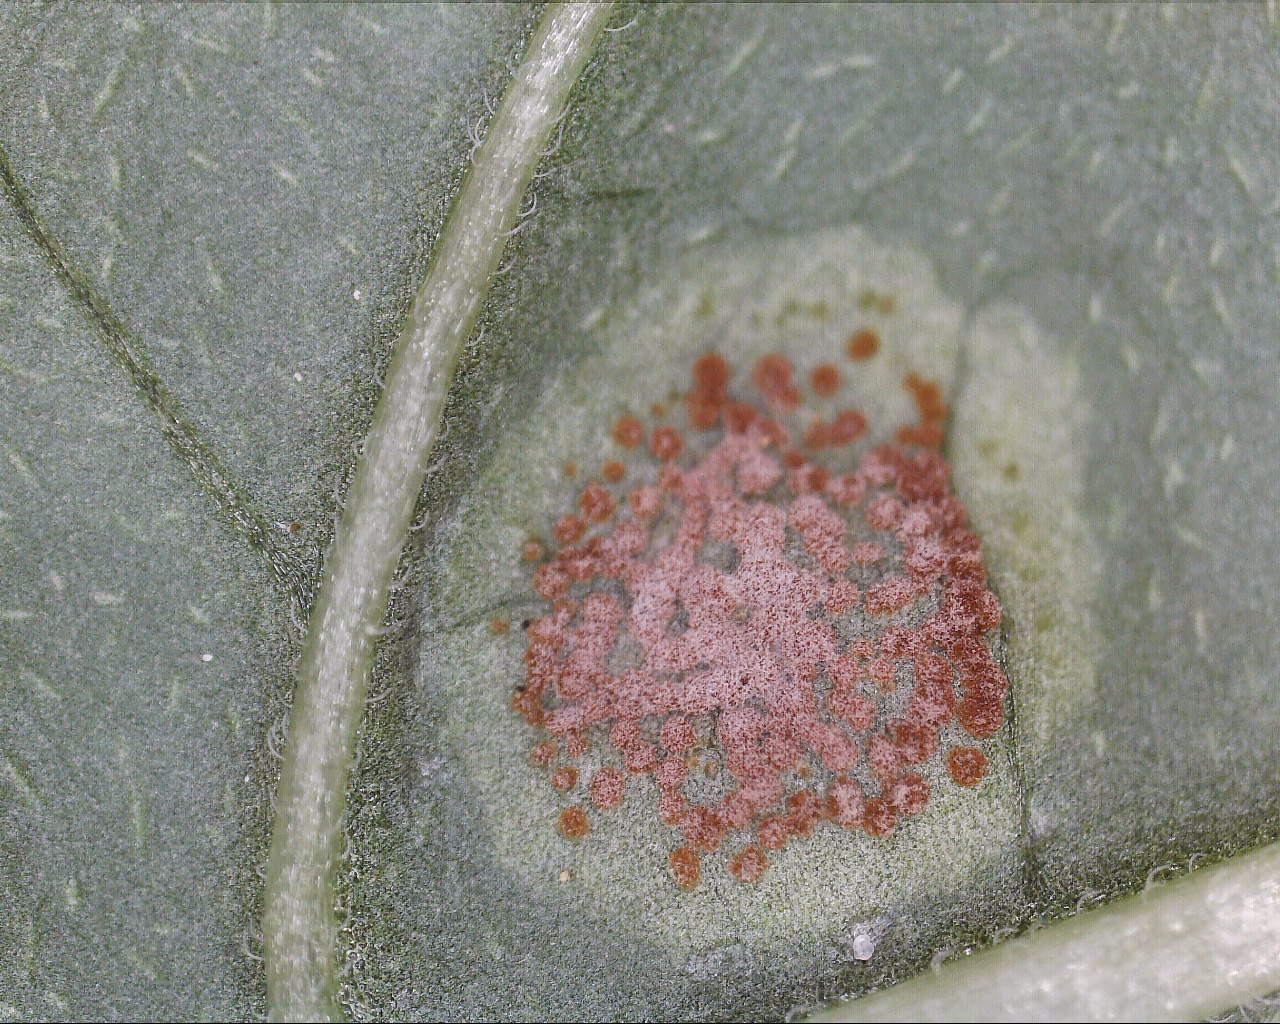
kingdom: Fungi
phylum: Basidiomycota
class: Pucciniomycetes
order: Pucciniales
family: Pucciniaceae
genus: Puccinia
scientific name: Puccinia circaeae
